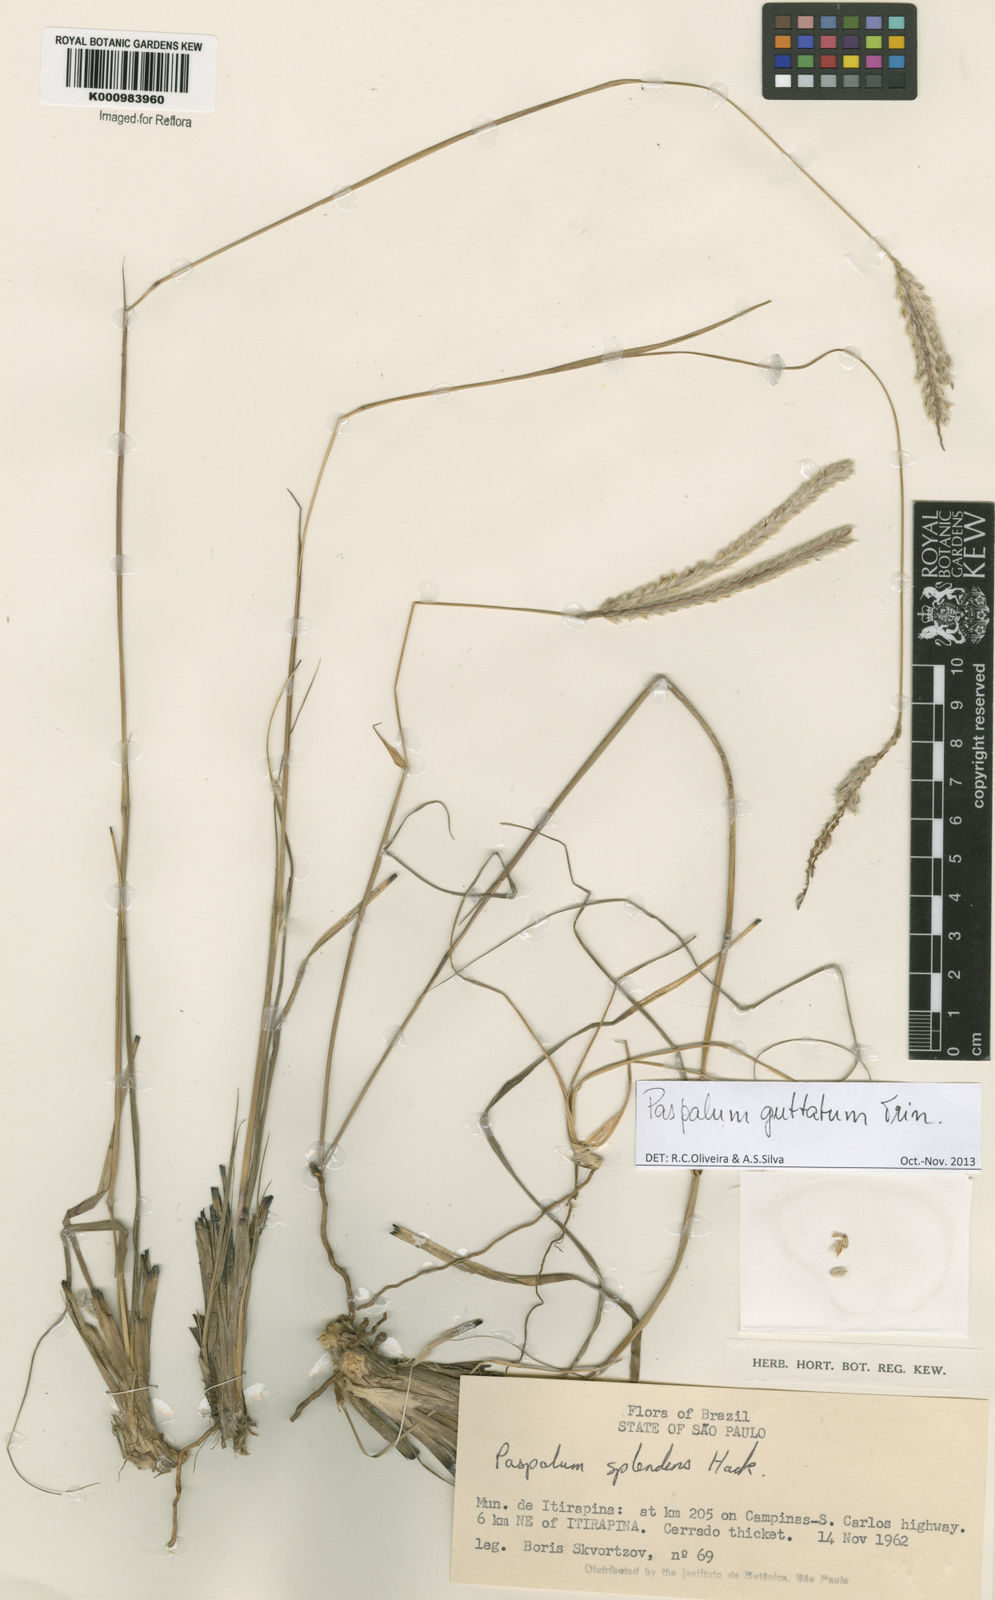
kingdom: Plantae
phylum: Tracheophyta
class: Liliopsida
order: Poales
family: Poaceae
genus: Paspalum
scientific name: Paspalum ammodes
